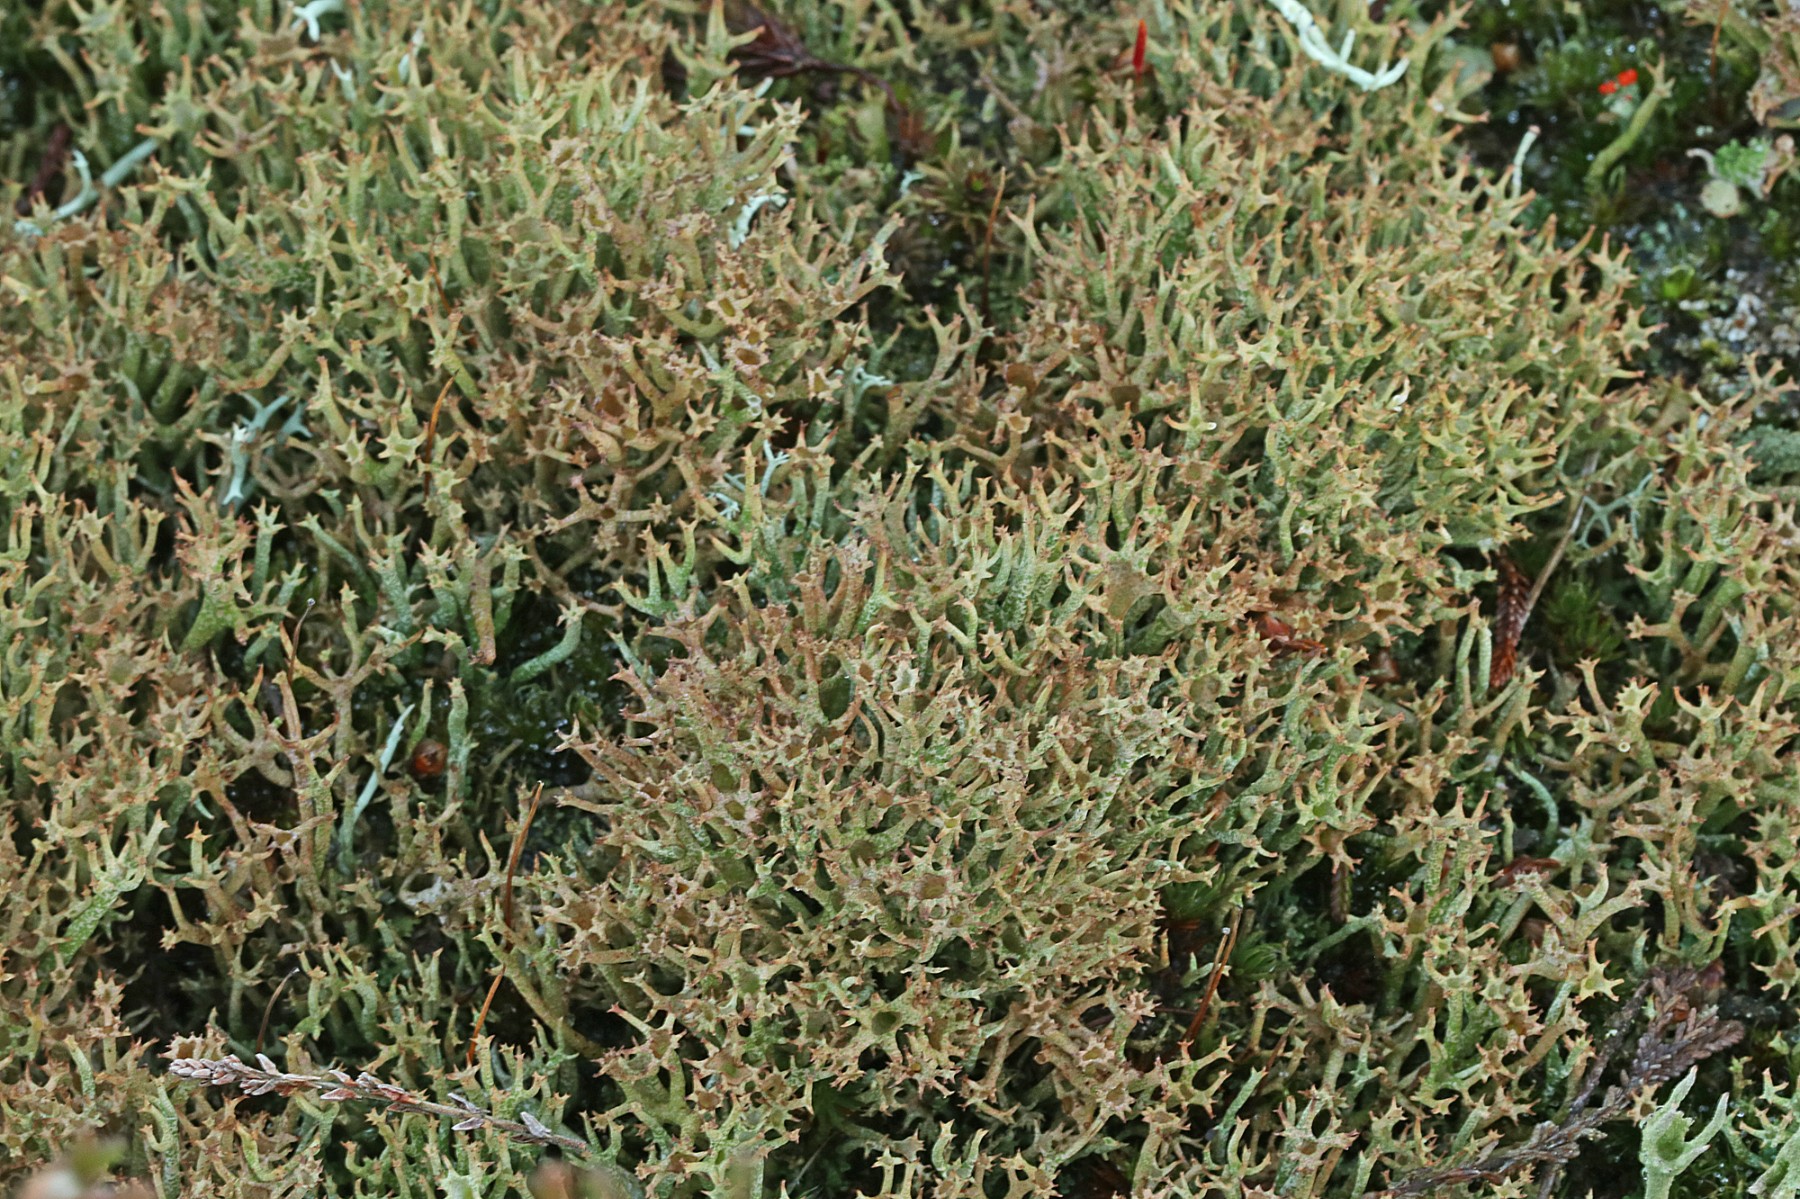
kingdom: Fungi
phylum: Ascomycota
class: Lecanoromycetes
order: Lecanorales
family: Cladoniaceae
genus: Cladonia
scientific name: Cladonia crispata
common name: takket bægerlav
